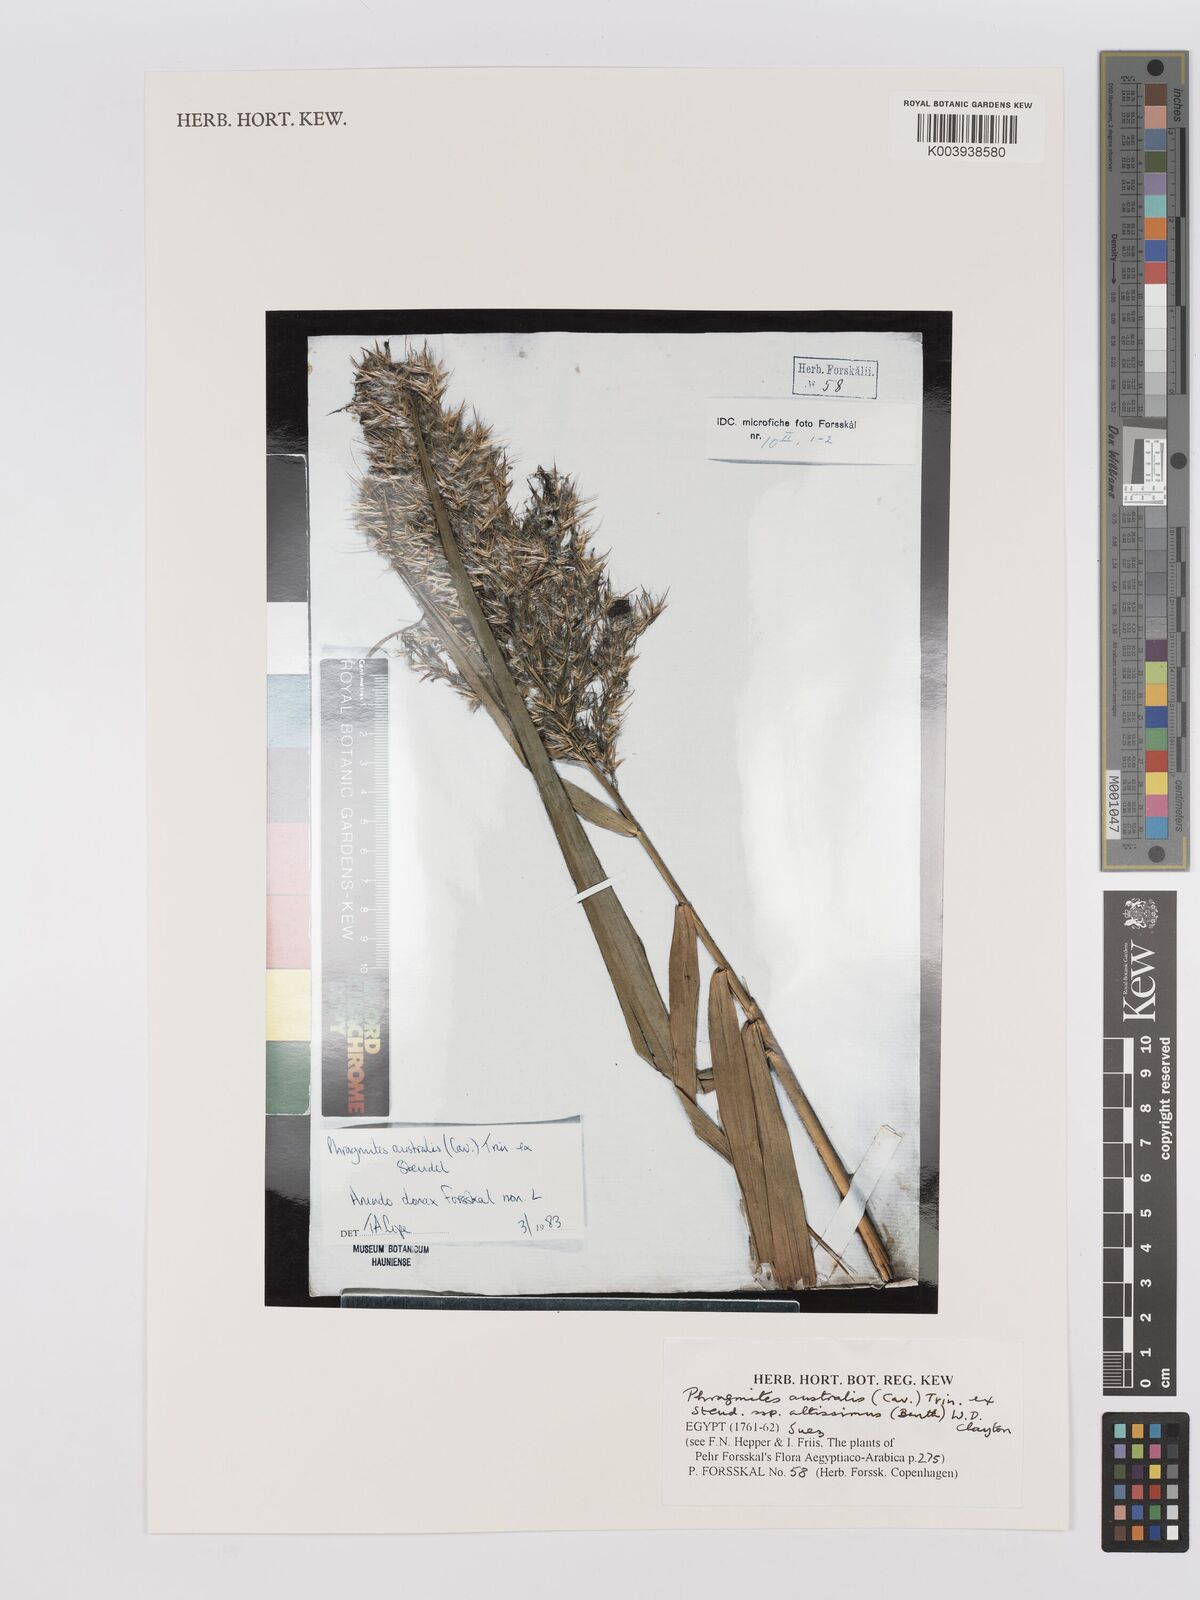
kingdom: Plantae
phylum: Tracheophyta
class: Liliopsida
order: Poales
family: Poaceae
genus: Phragmites
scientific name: Phragmites australis
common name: Common reed
